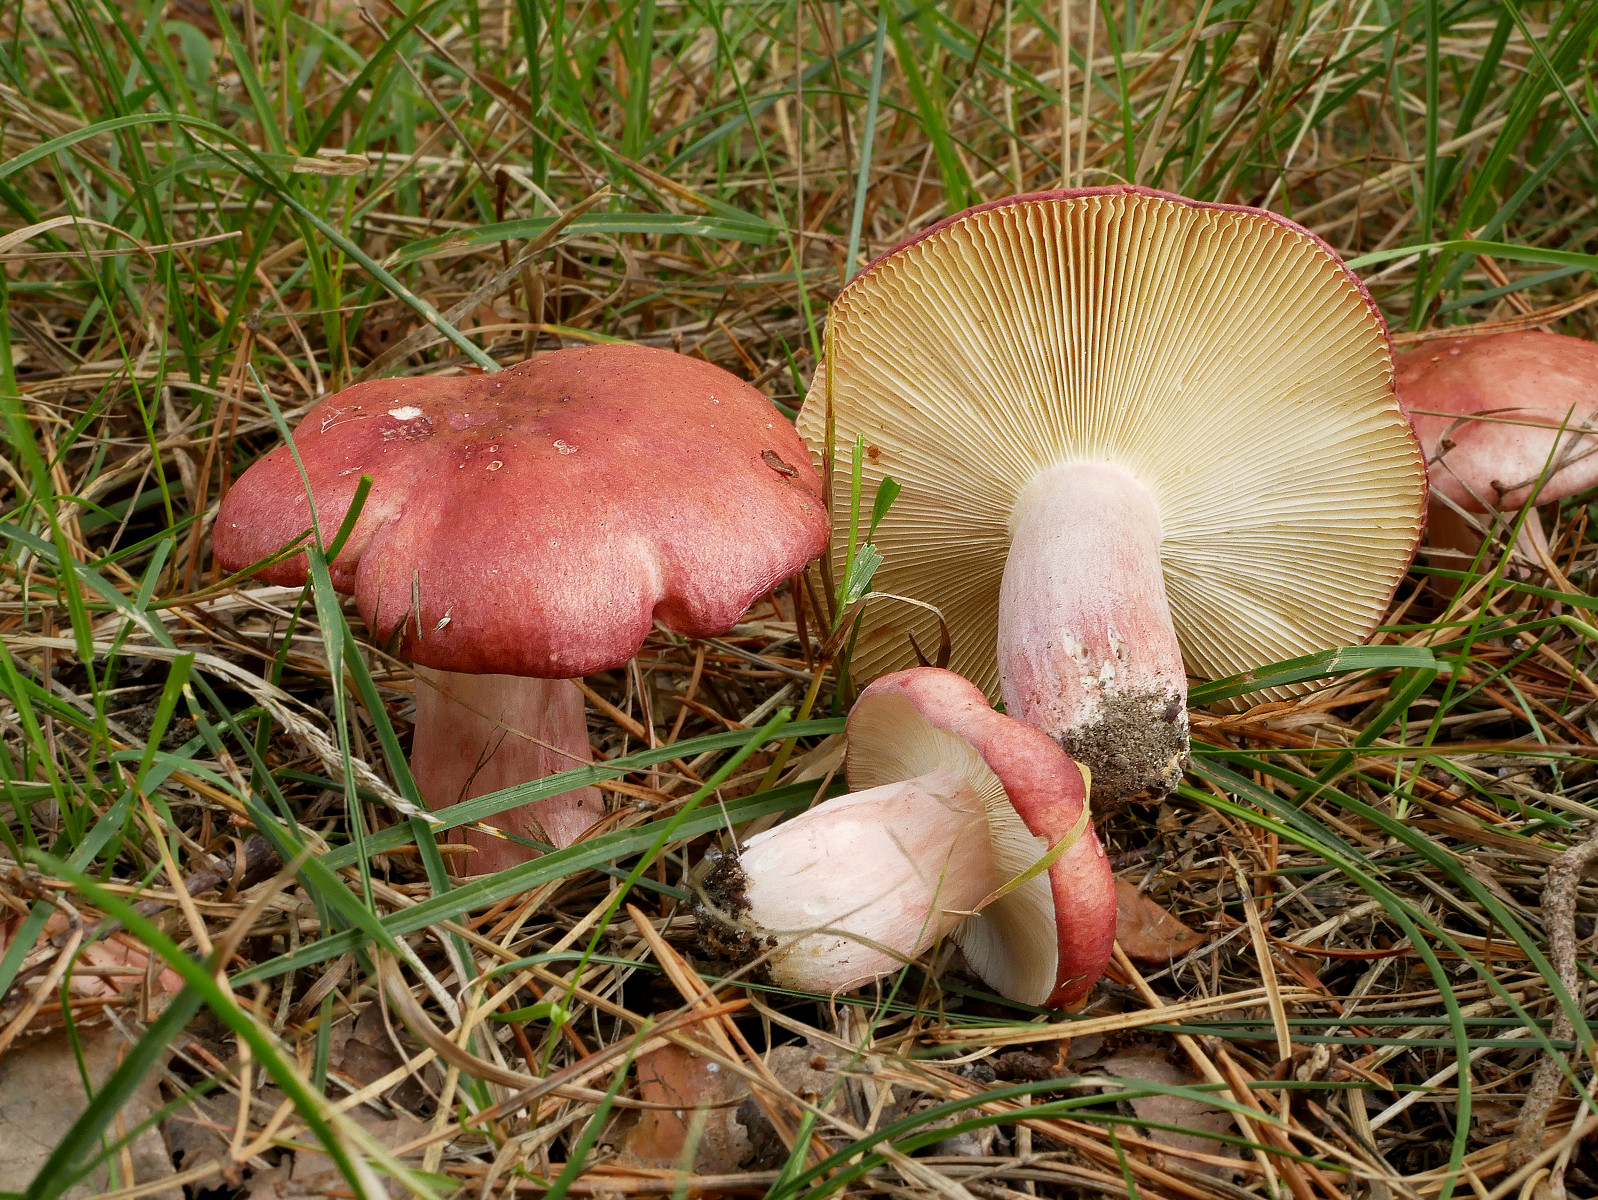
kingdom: Fungi
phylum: Basidiomycota
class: Agaricomycetes
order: Russulales
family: Russulaceae
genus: Russula
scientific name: Russula sanguinea
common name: blodrød skørhat
